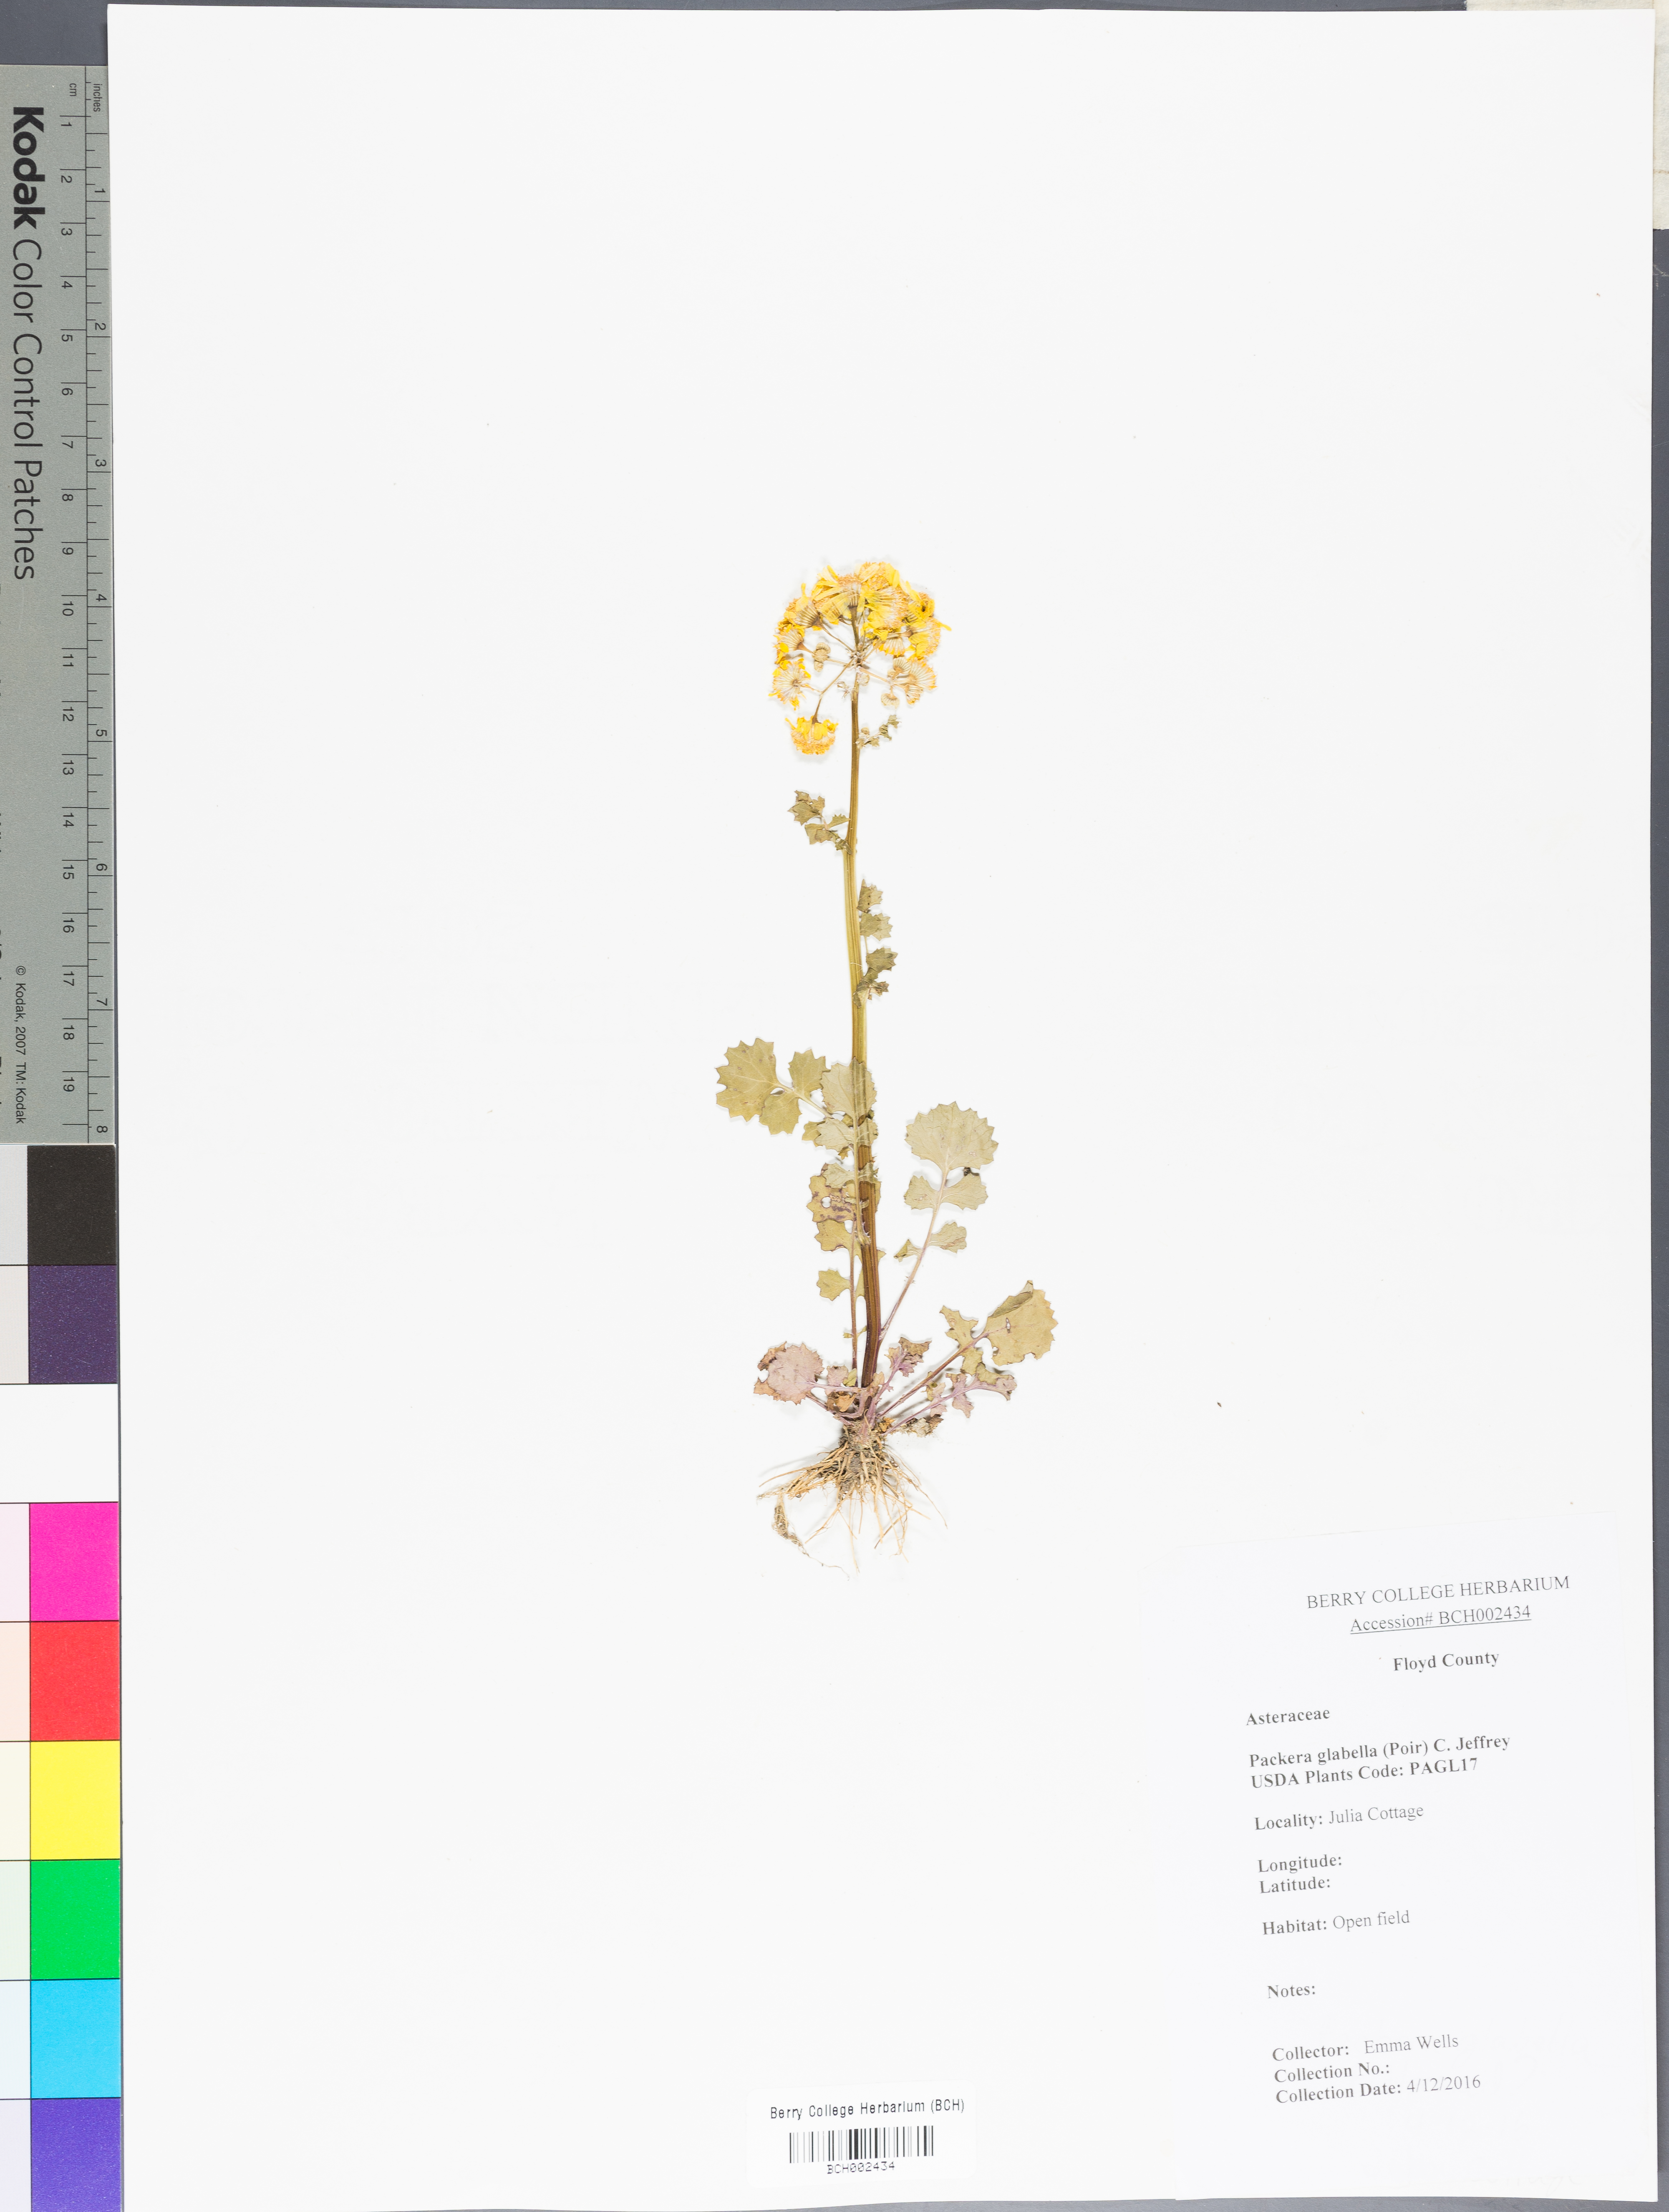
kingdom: Plantae
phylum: Tracheophyta
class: Magnoliopsida
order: Asterales
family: Asteraceae
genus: Packera
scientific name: Packera glabella
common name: Butterweed
